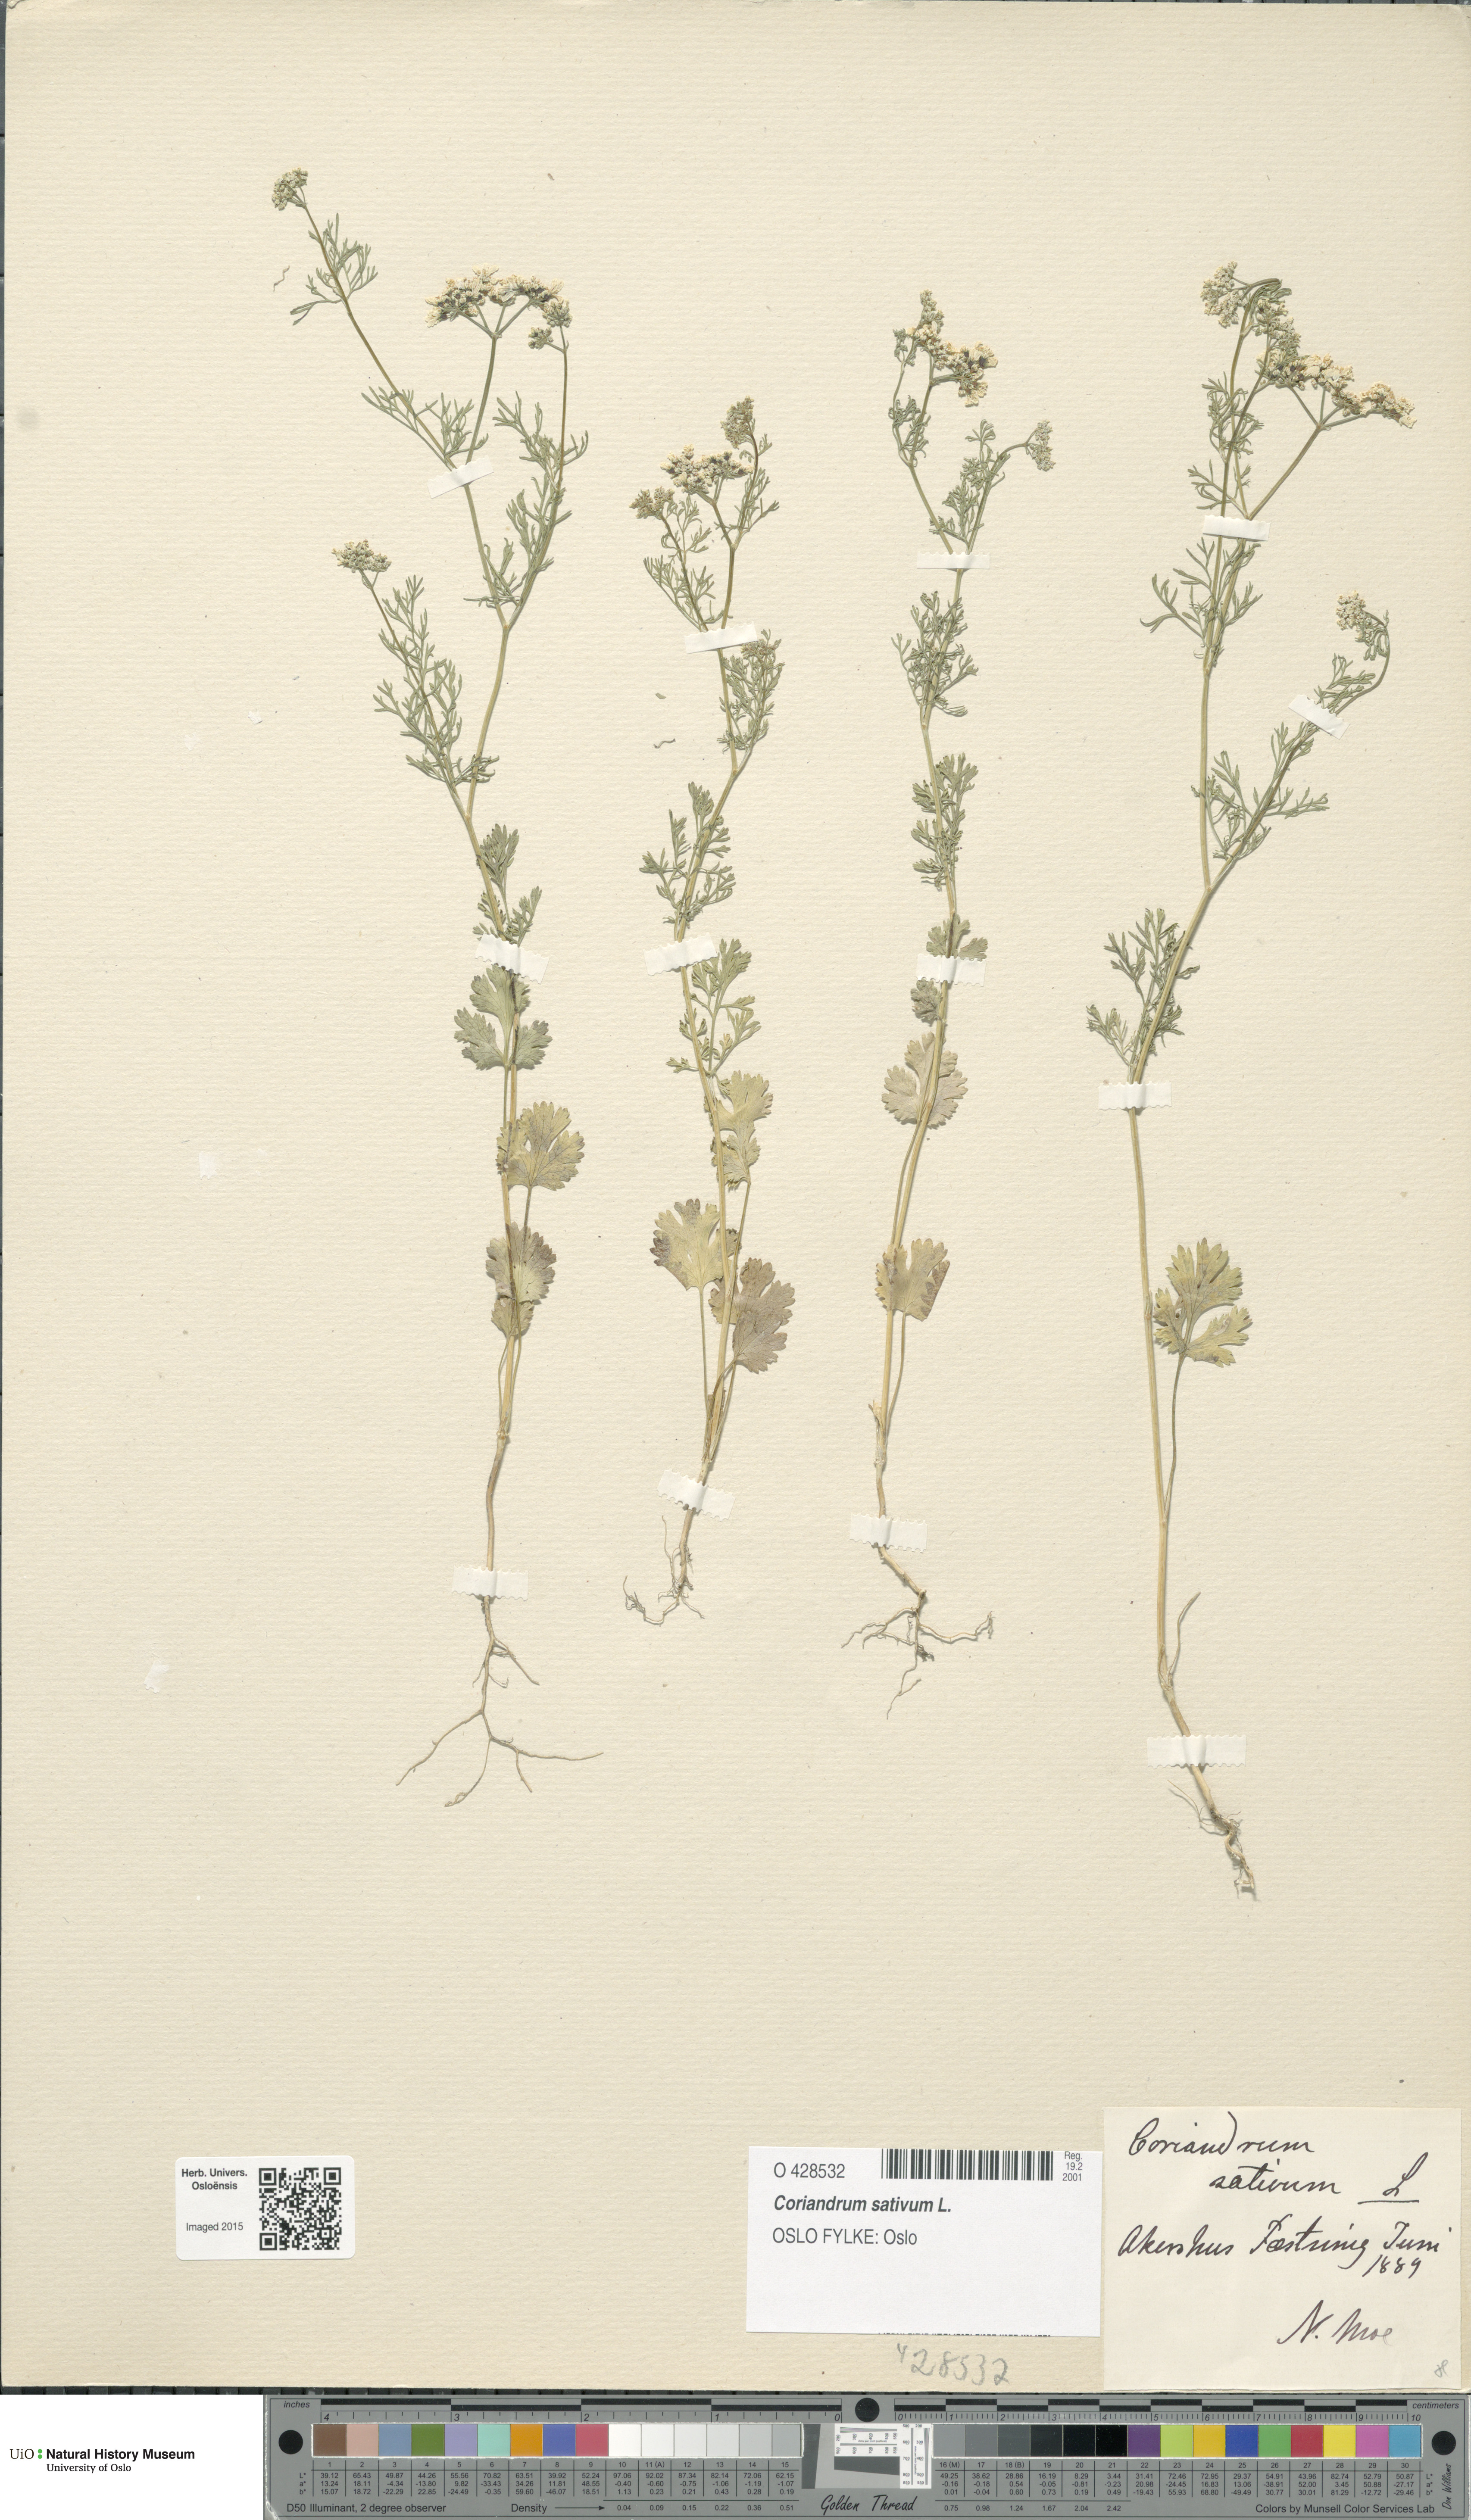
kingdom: Plantae
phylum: Tracheophyta
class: Magnoliopsida
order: Apiales
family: Apiaceae
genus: Coriandrum
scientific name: Coriandrum sativum
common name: Coriander
